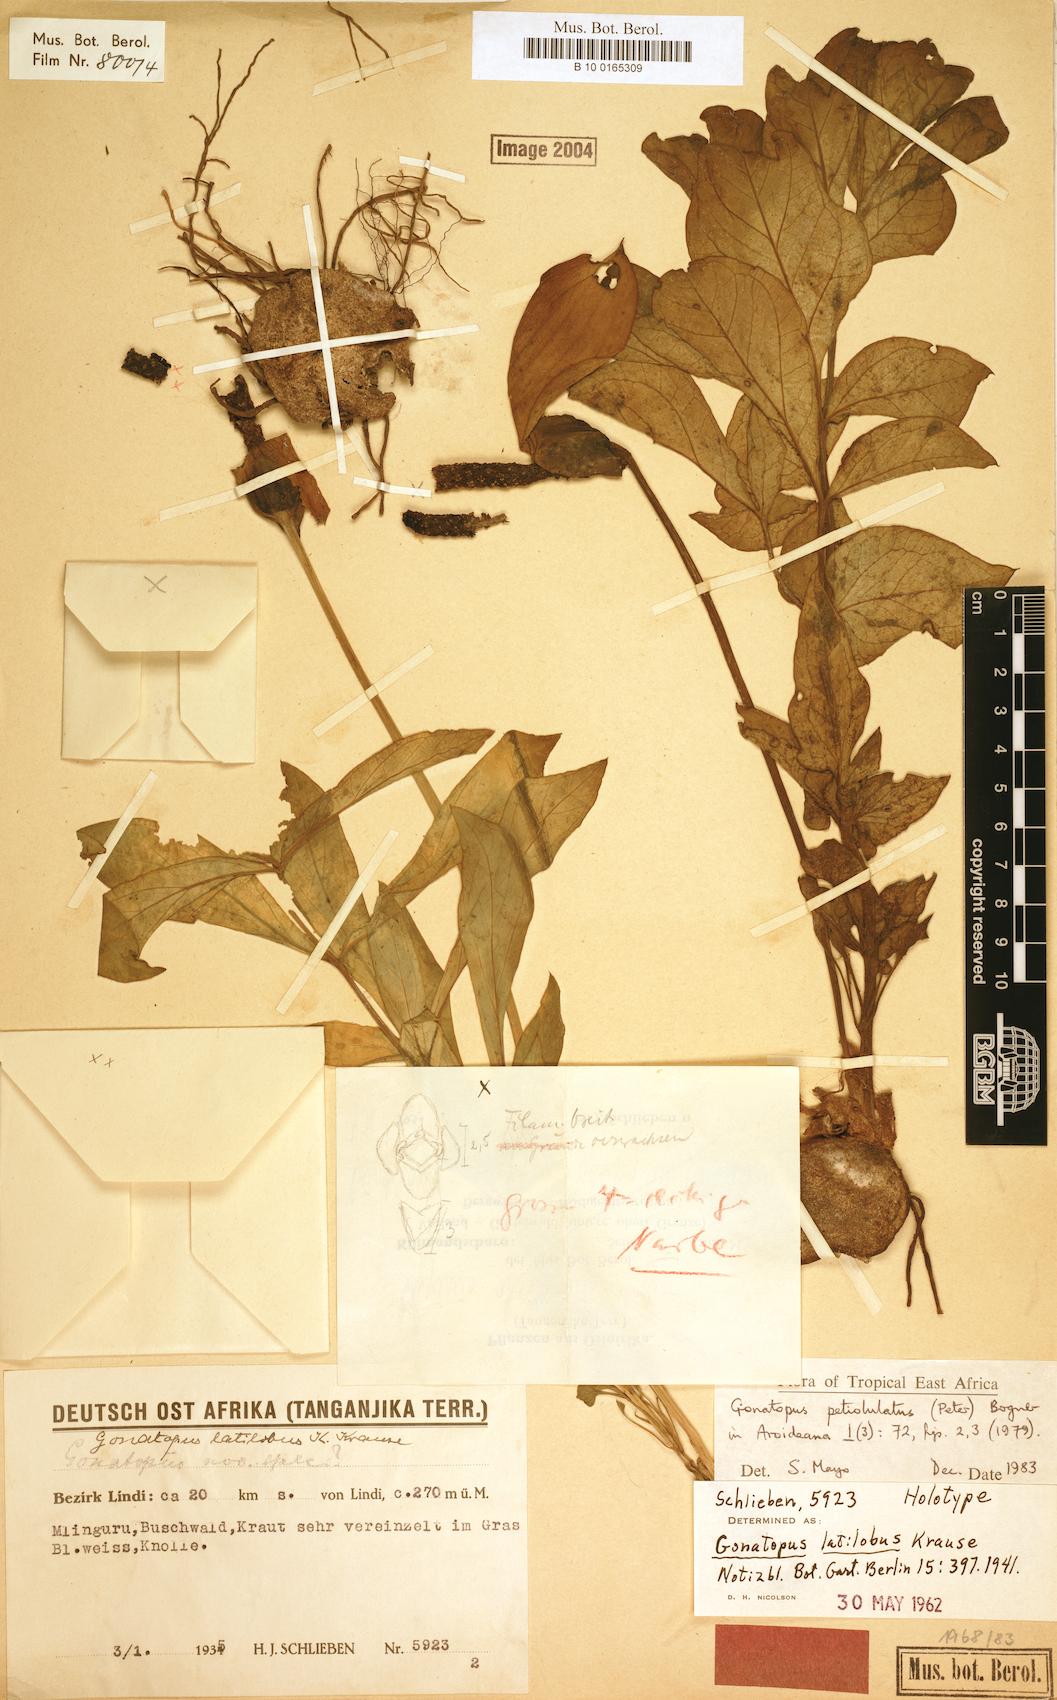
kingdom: Plantae
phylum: Tracheophyta
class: Liliopsida
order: Alismatales
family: Araceae
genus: Gonatopus
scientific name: Gonatopus petiolulatus
